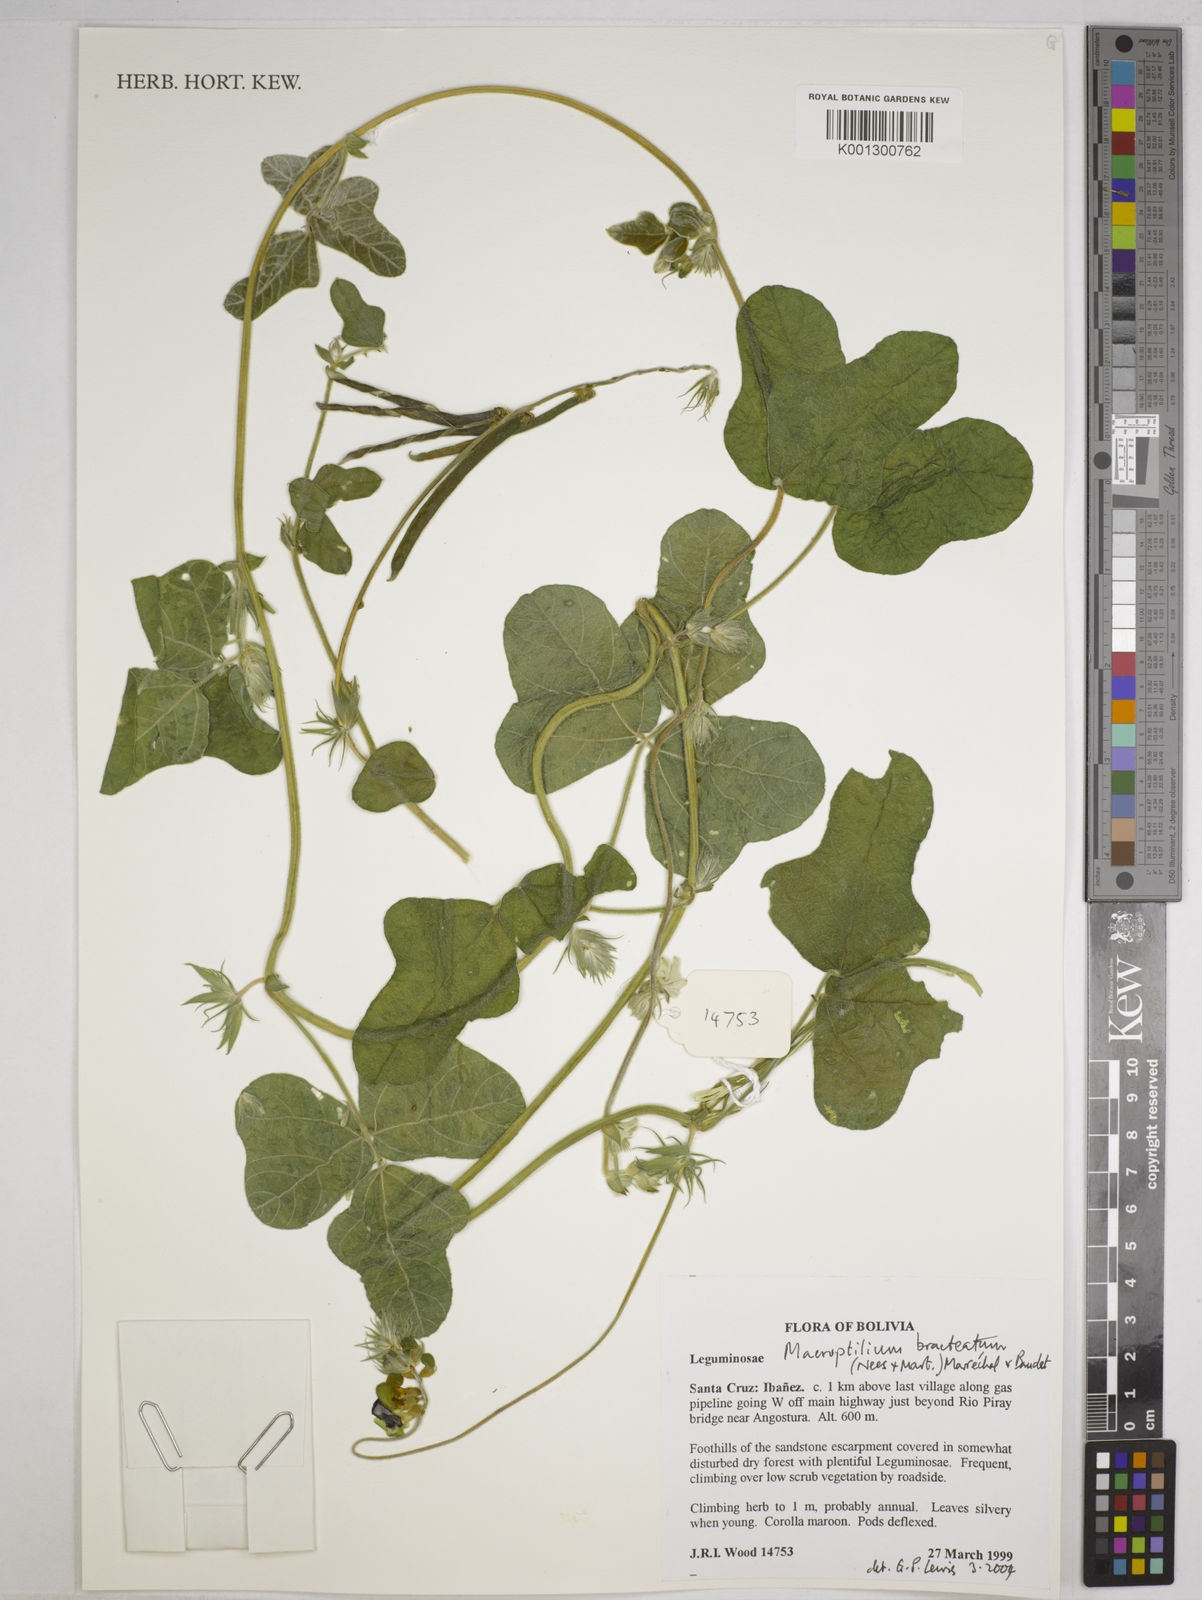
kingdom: Plantae
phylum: Tracheophyta
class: Magnoliopsida
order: Fabales
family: Fabaceae
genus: Macroptilium
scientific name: Macroptilium bracteatum
